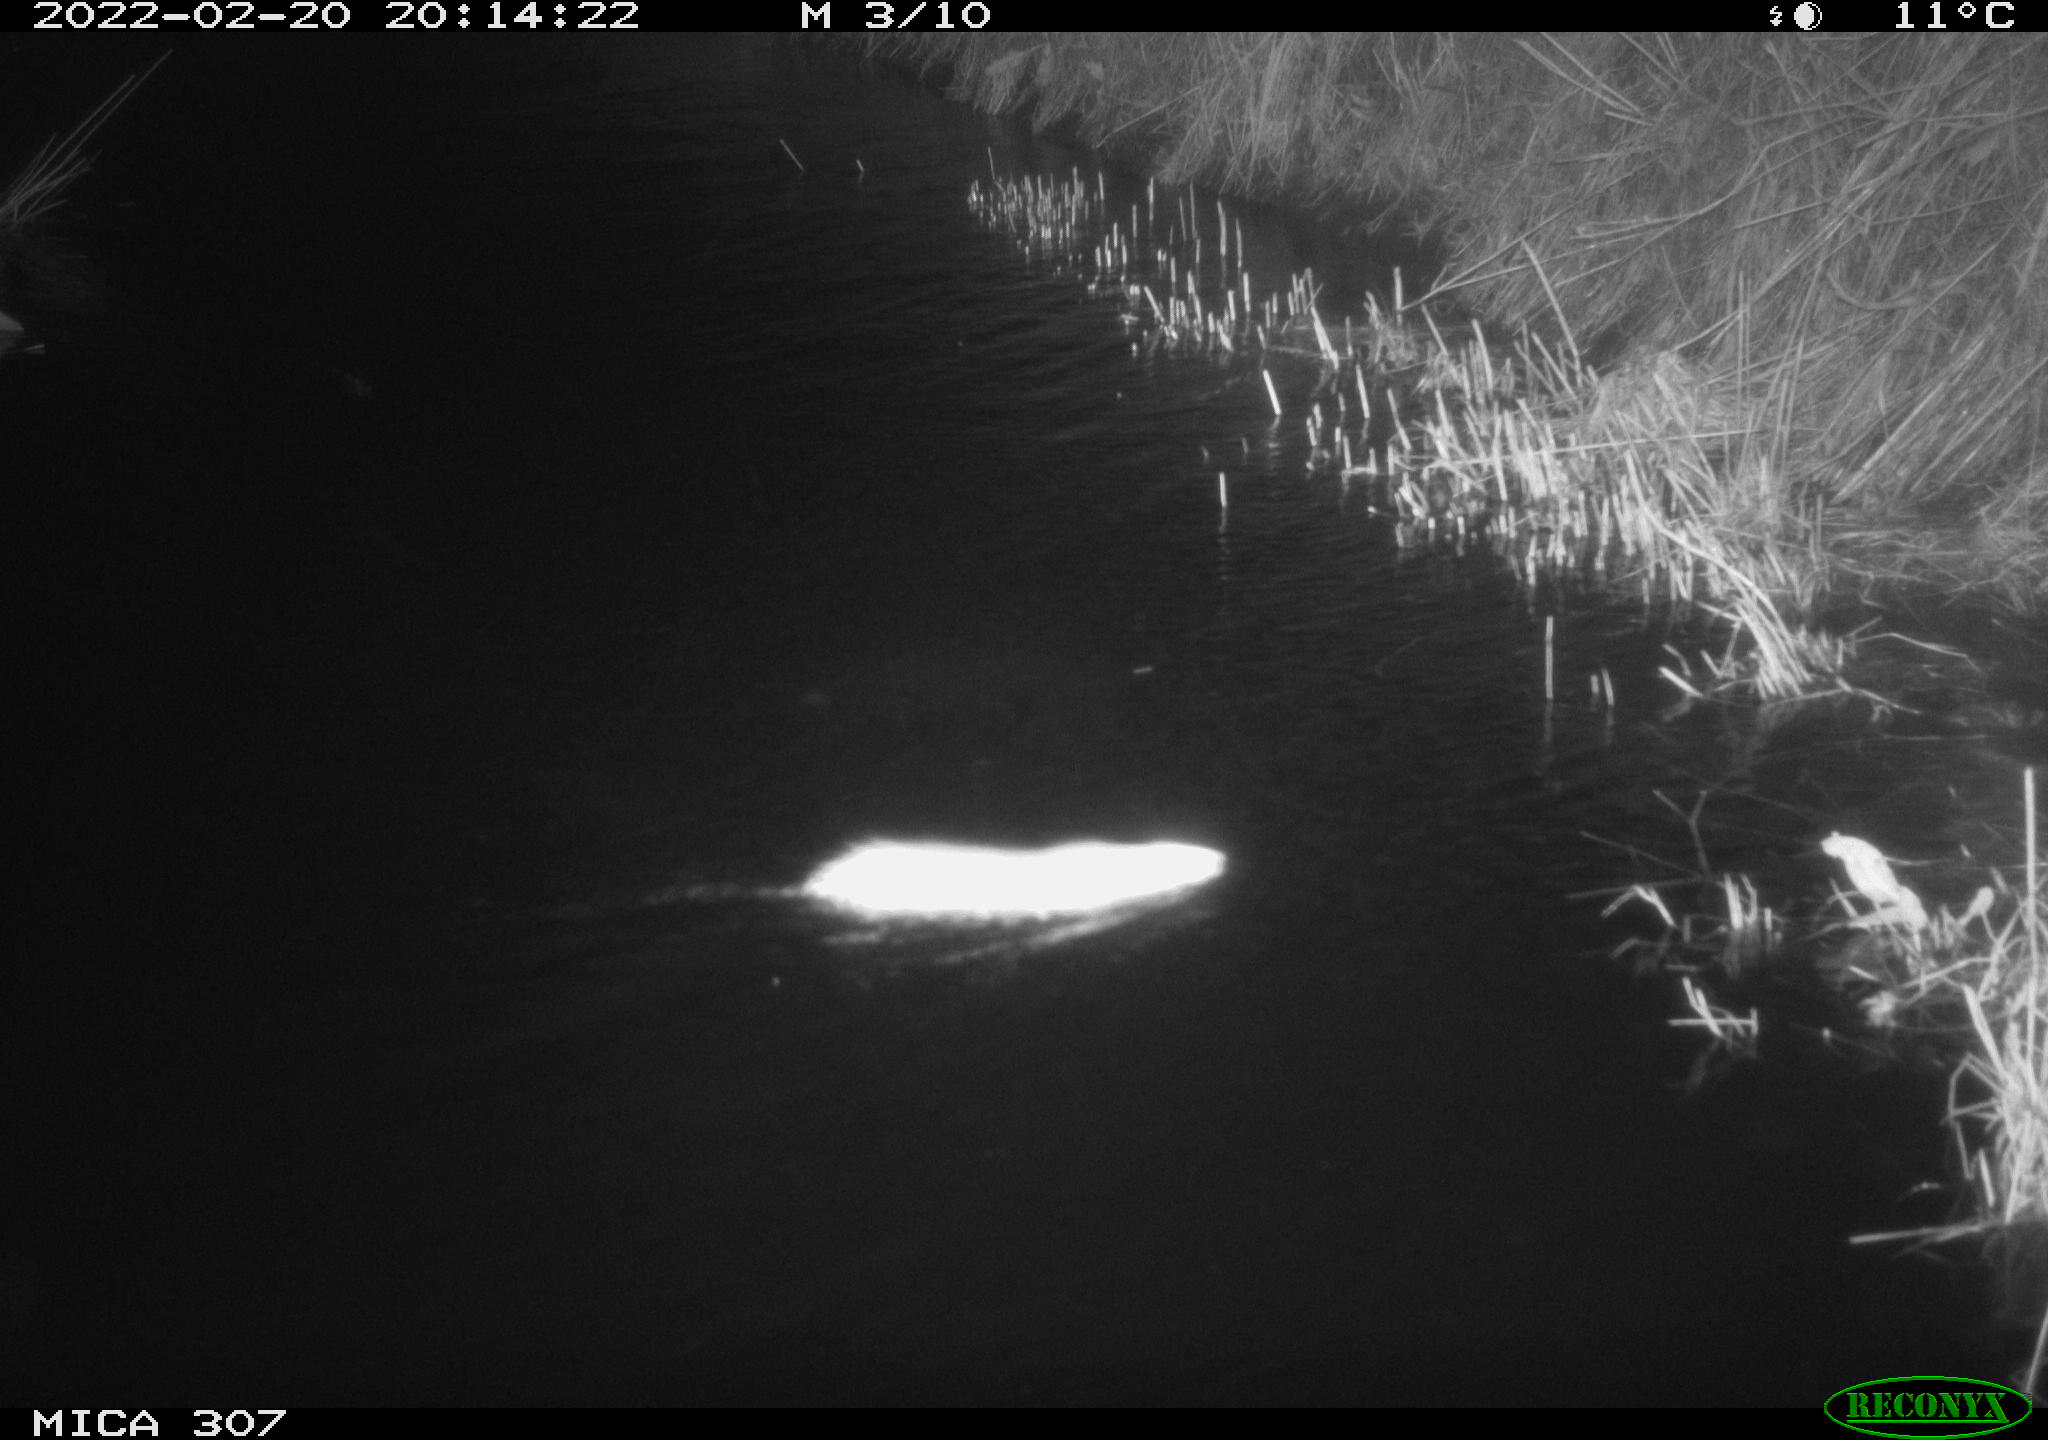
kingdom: Animalia
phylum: Chordata
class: Mammalia
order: Rodentia
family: Muridae
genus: Rattus
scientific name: Rattus norvegicus
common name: Brown rat
